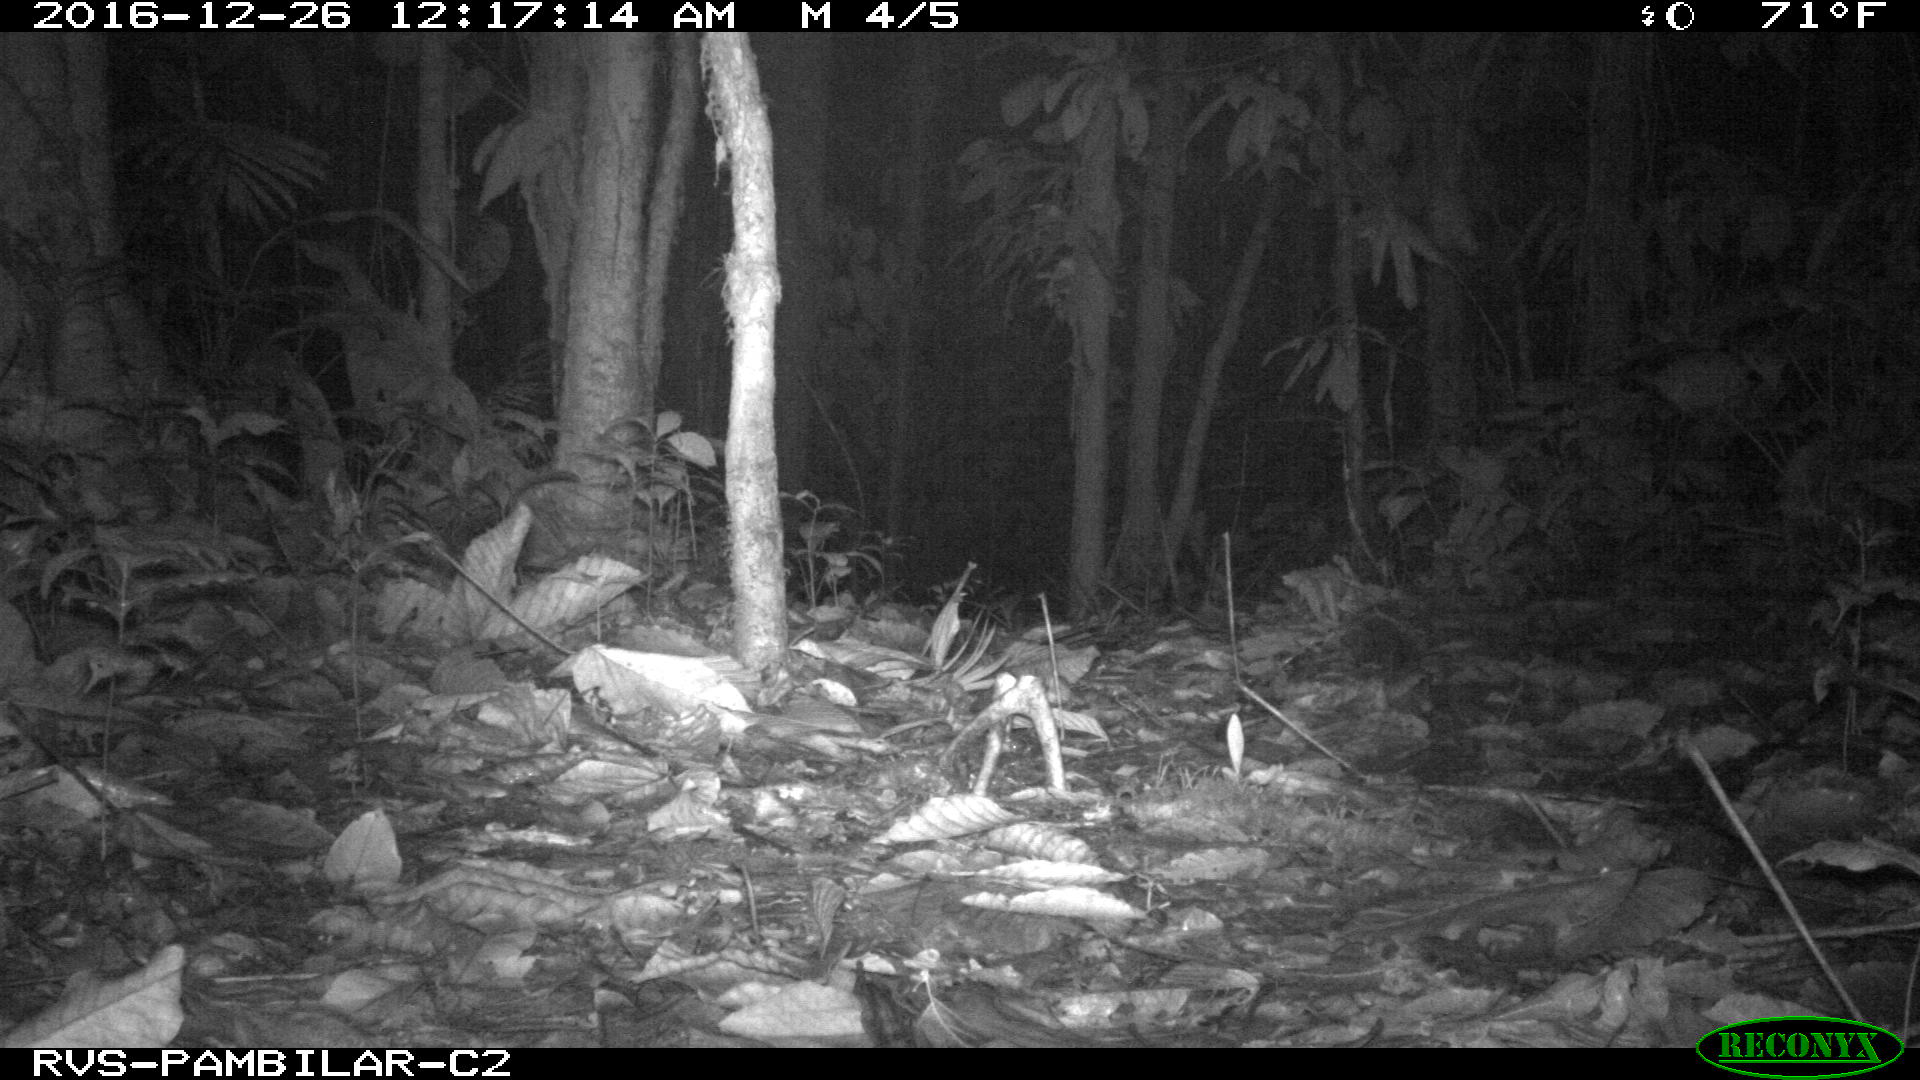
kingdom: Animalia
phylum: Chordata
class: Mammalia
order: Pilosa
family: Myrmecophagidae
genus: Tamandua
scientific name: Tamandua mexicana
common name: Northern tamandua
